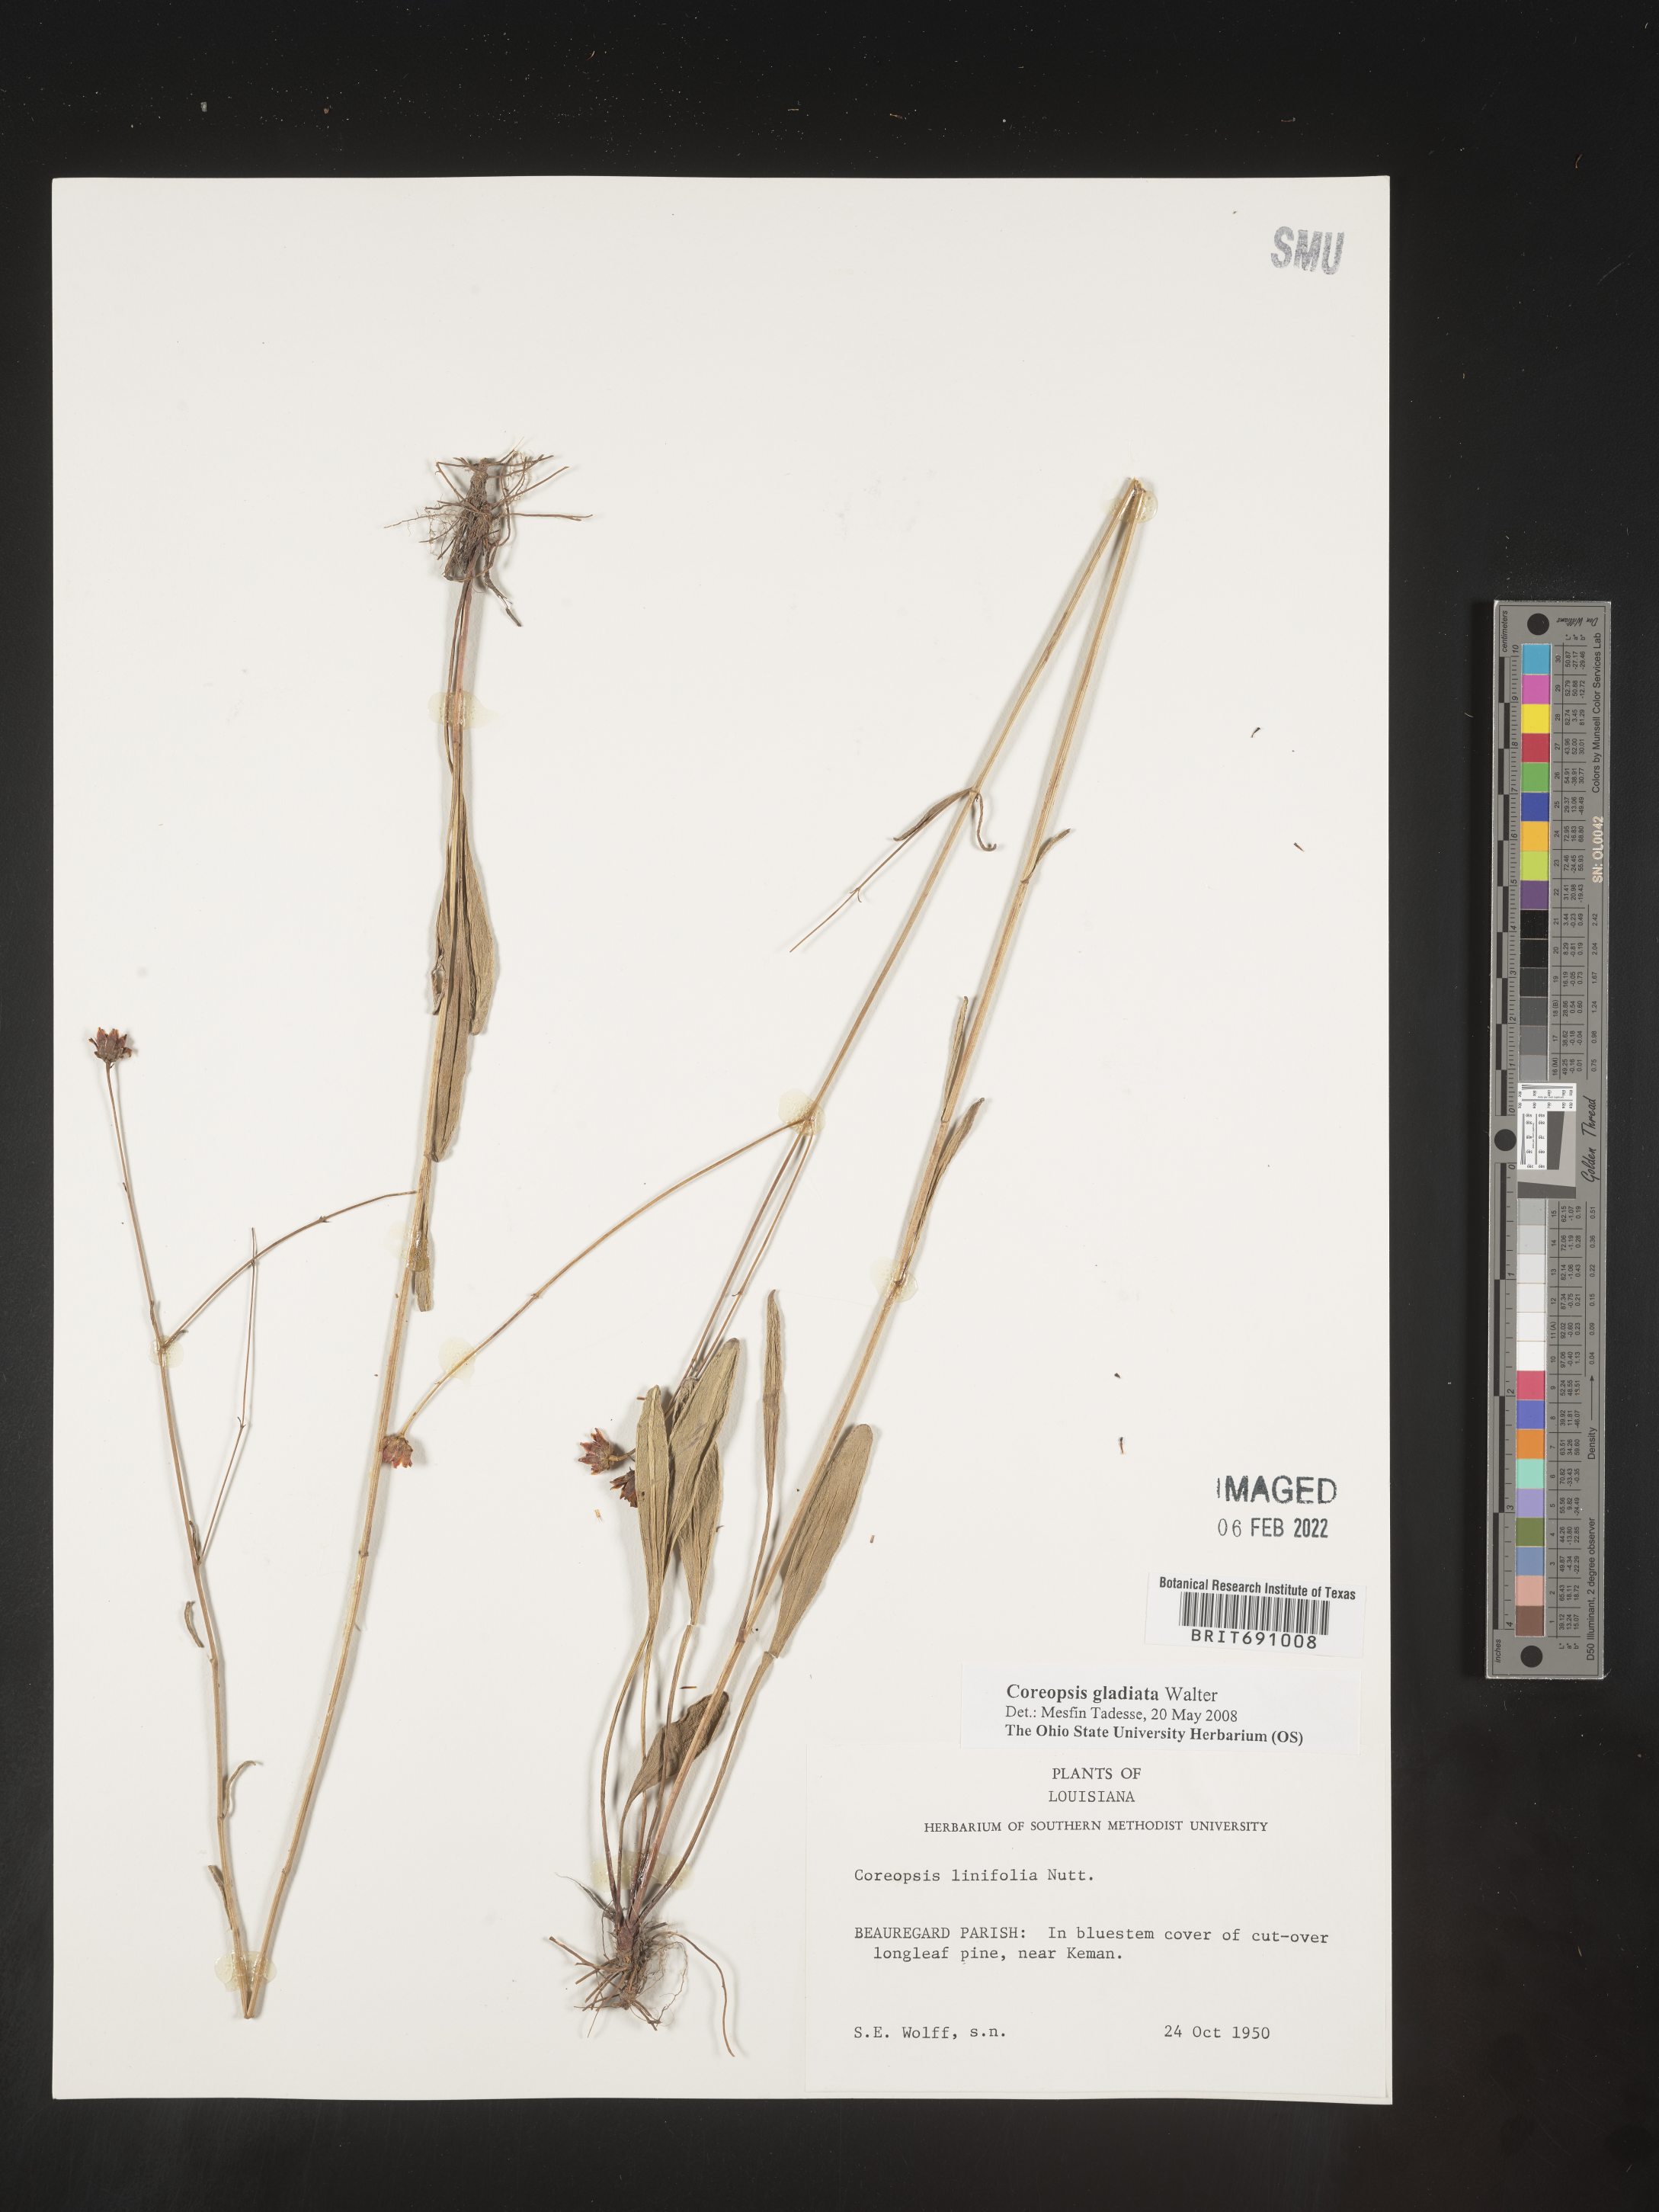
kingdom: Plantae
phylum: Tracheophyta
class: Magnoliopsida
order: Asterales
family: Asteraceae
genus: Coreopsis
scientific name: Coreopsis gladiata
